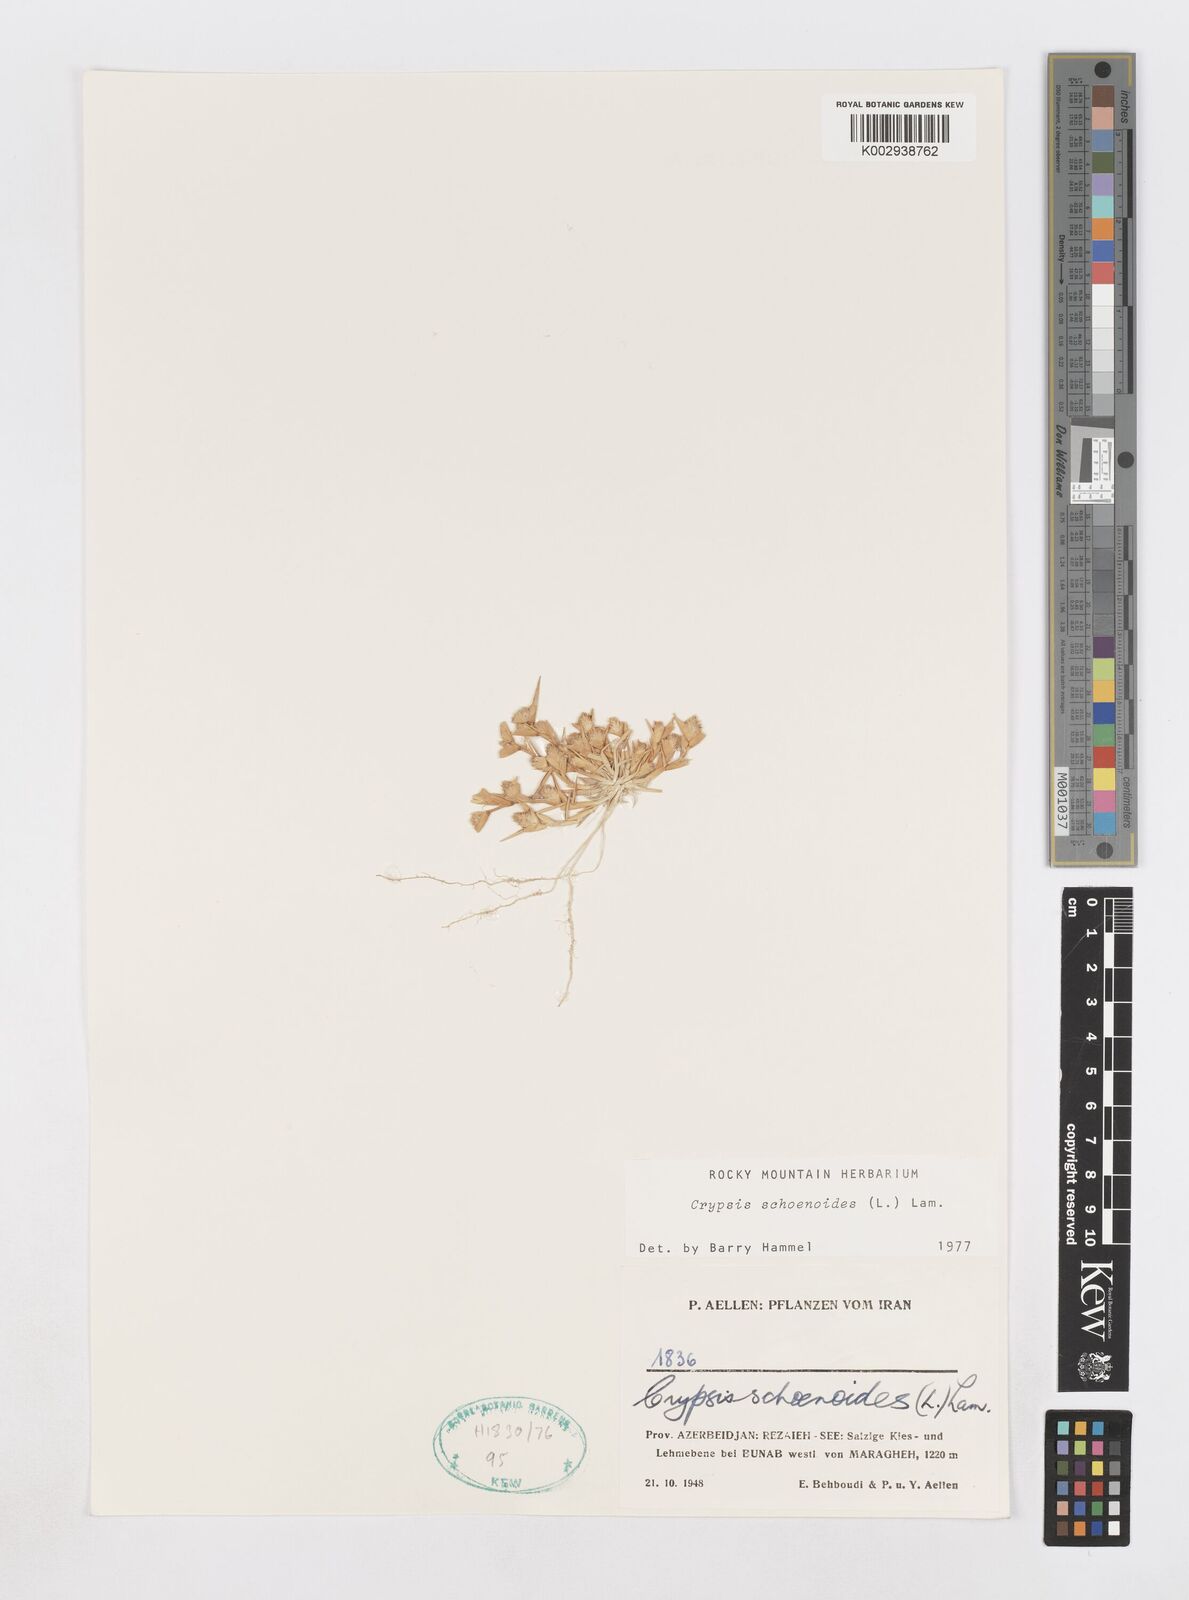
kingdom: Plantae
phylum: Tracheophyta
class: Liliopsida
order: Poales
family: Poaceae
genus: Sporobolus
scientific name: Sporobolus schoenoides
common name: Rush-like timothy
